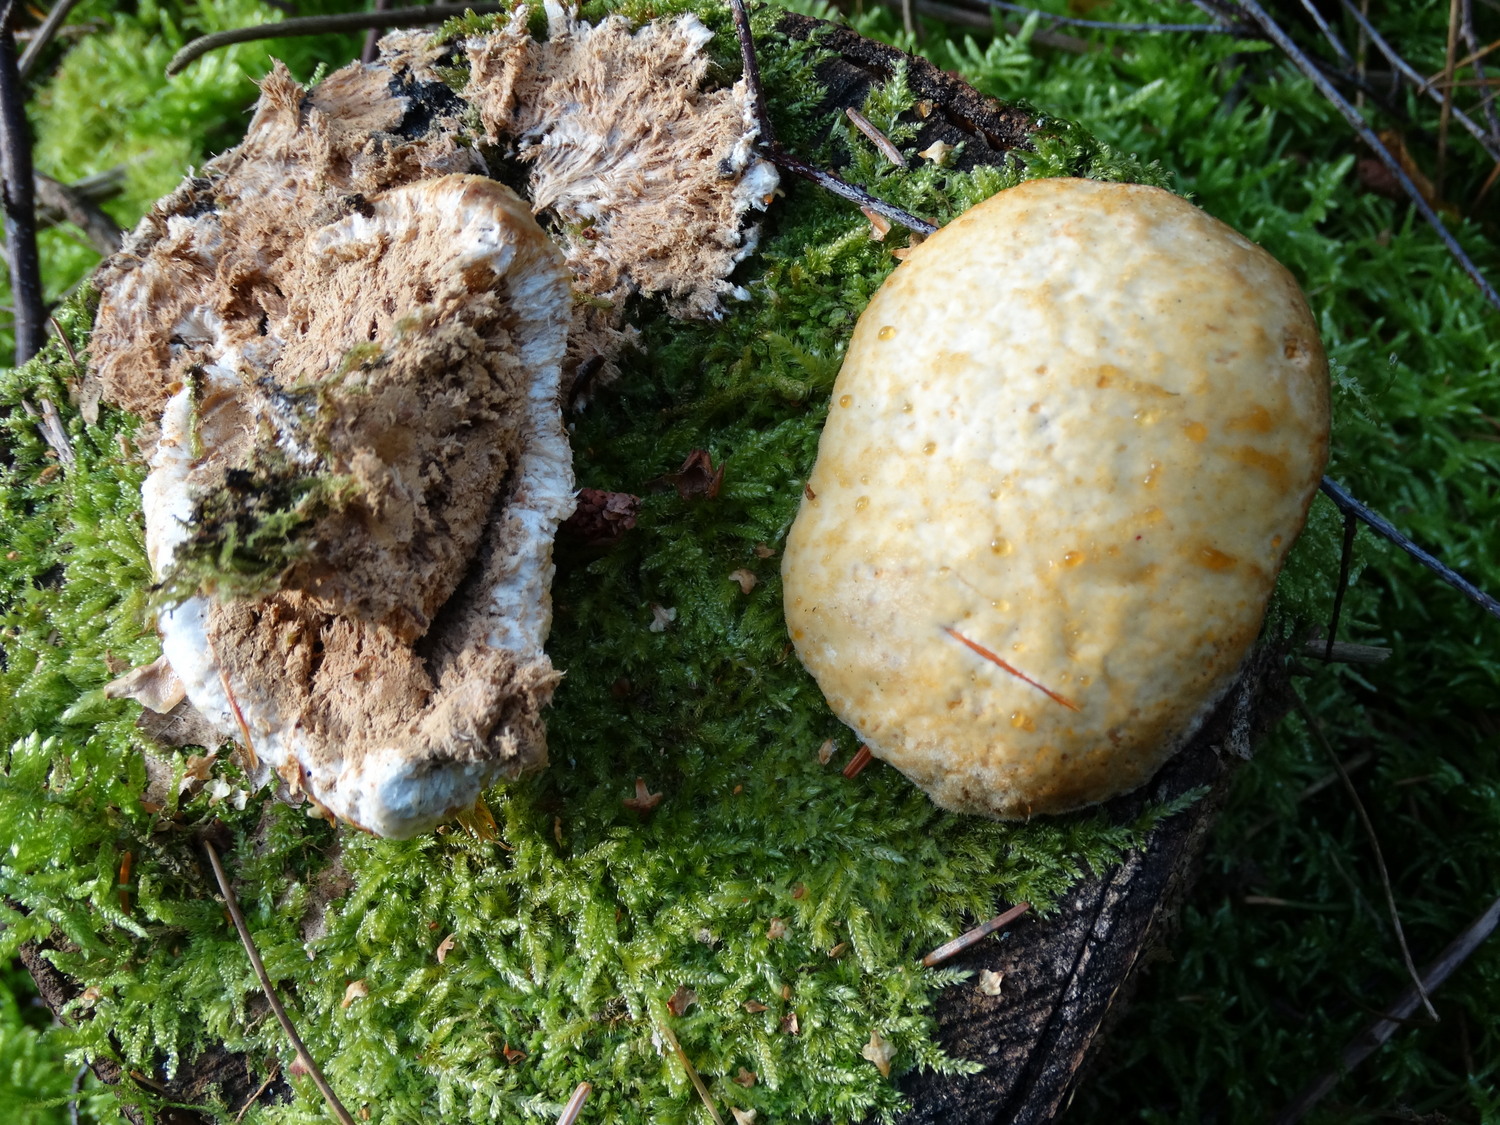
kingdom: Fungi
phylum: Basidiomycota
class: Agaricomycetes
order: Polyporales
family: Dacryobolaceae
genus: Postia
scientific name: Postia ptychogaster
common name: støvende kødporesvamp
